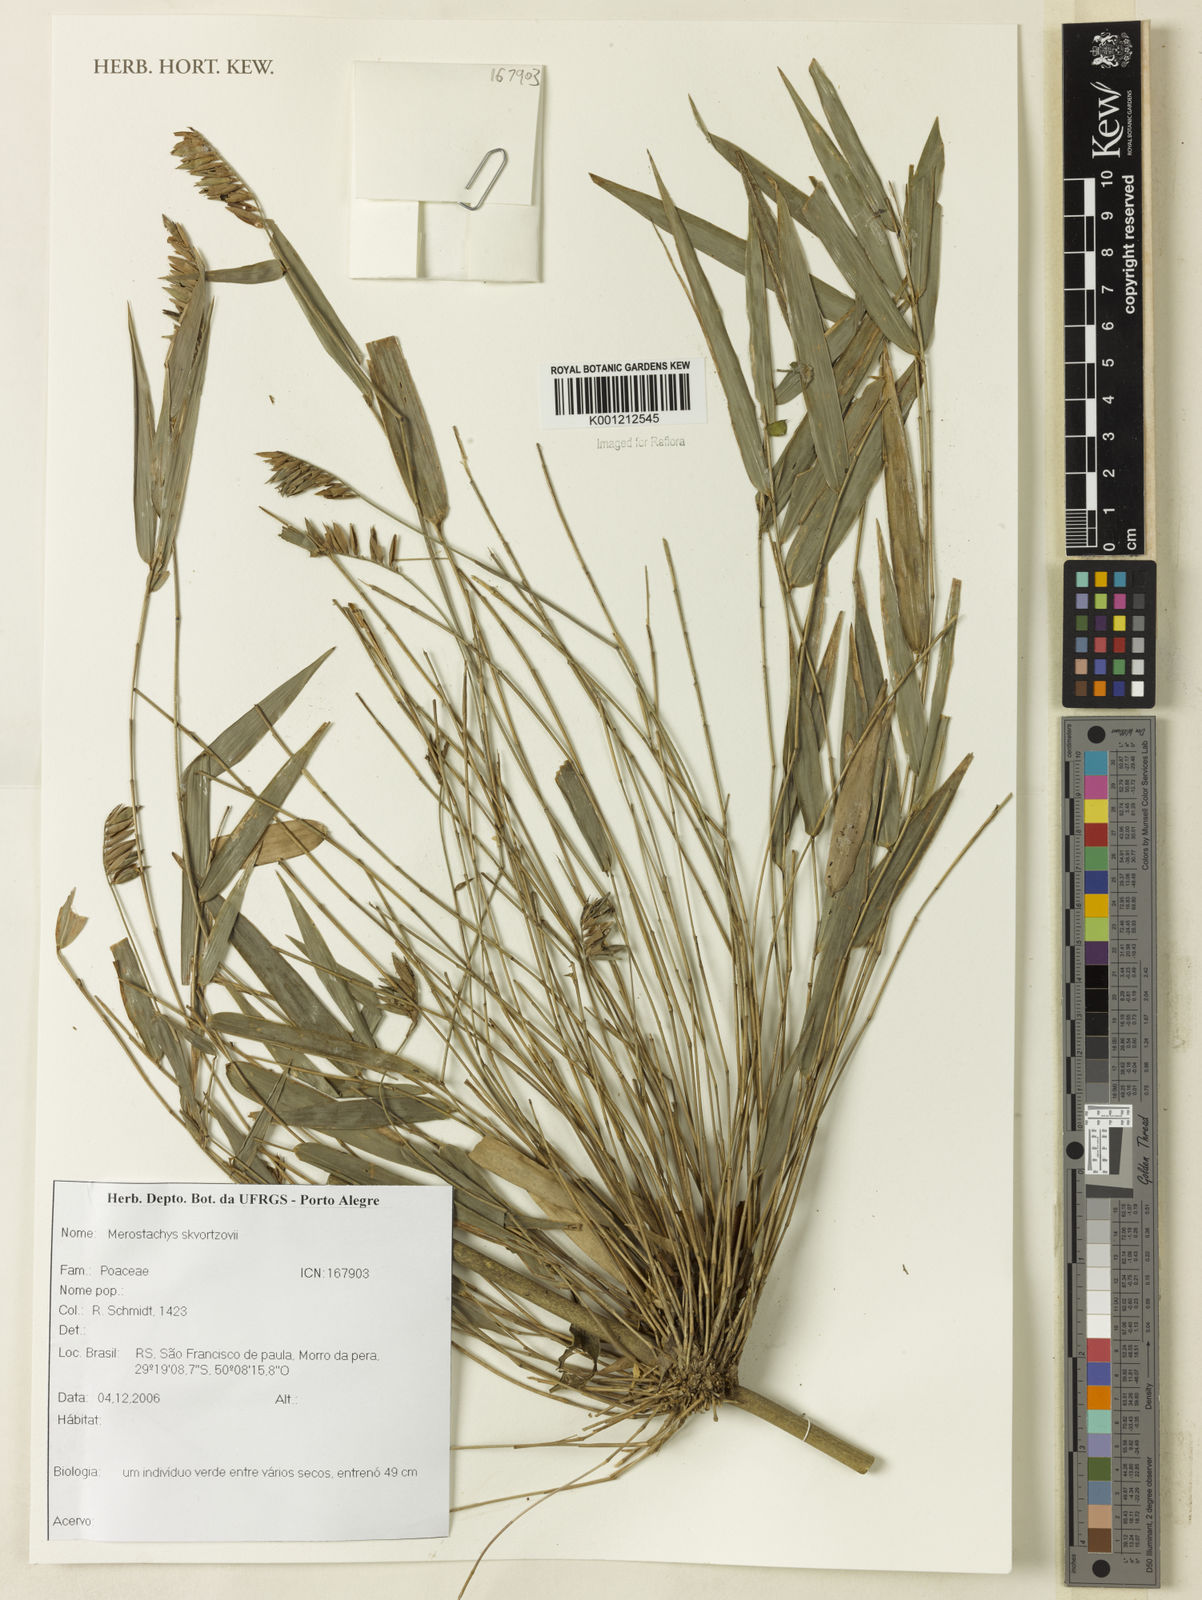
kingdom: Plantae
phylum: Tracheophyta
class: Liliopsida
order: Poales
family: Poaceae
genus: Merostachys
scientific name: Merostachys skvortzovii
